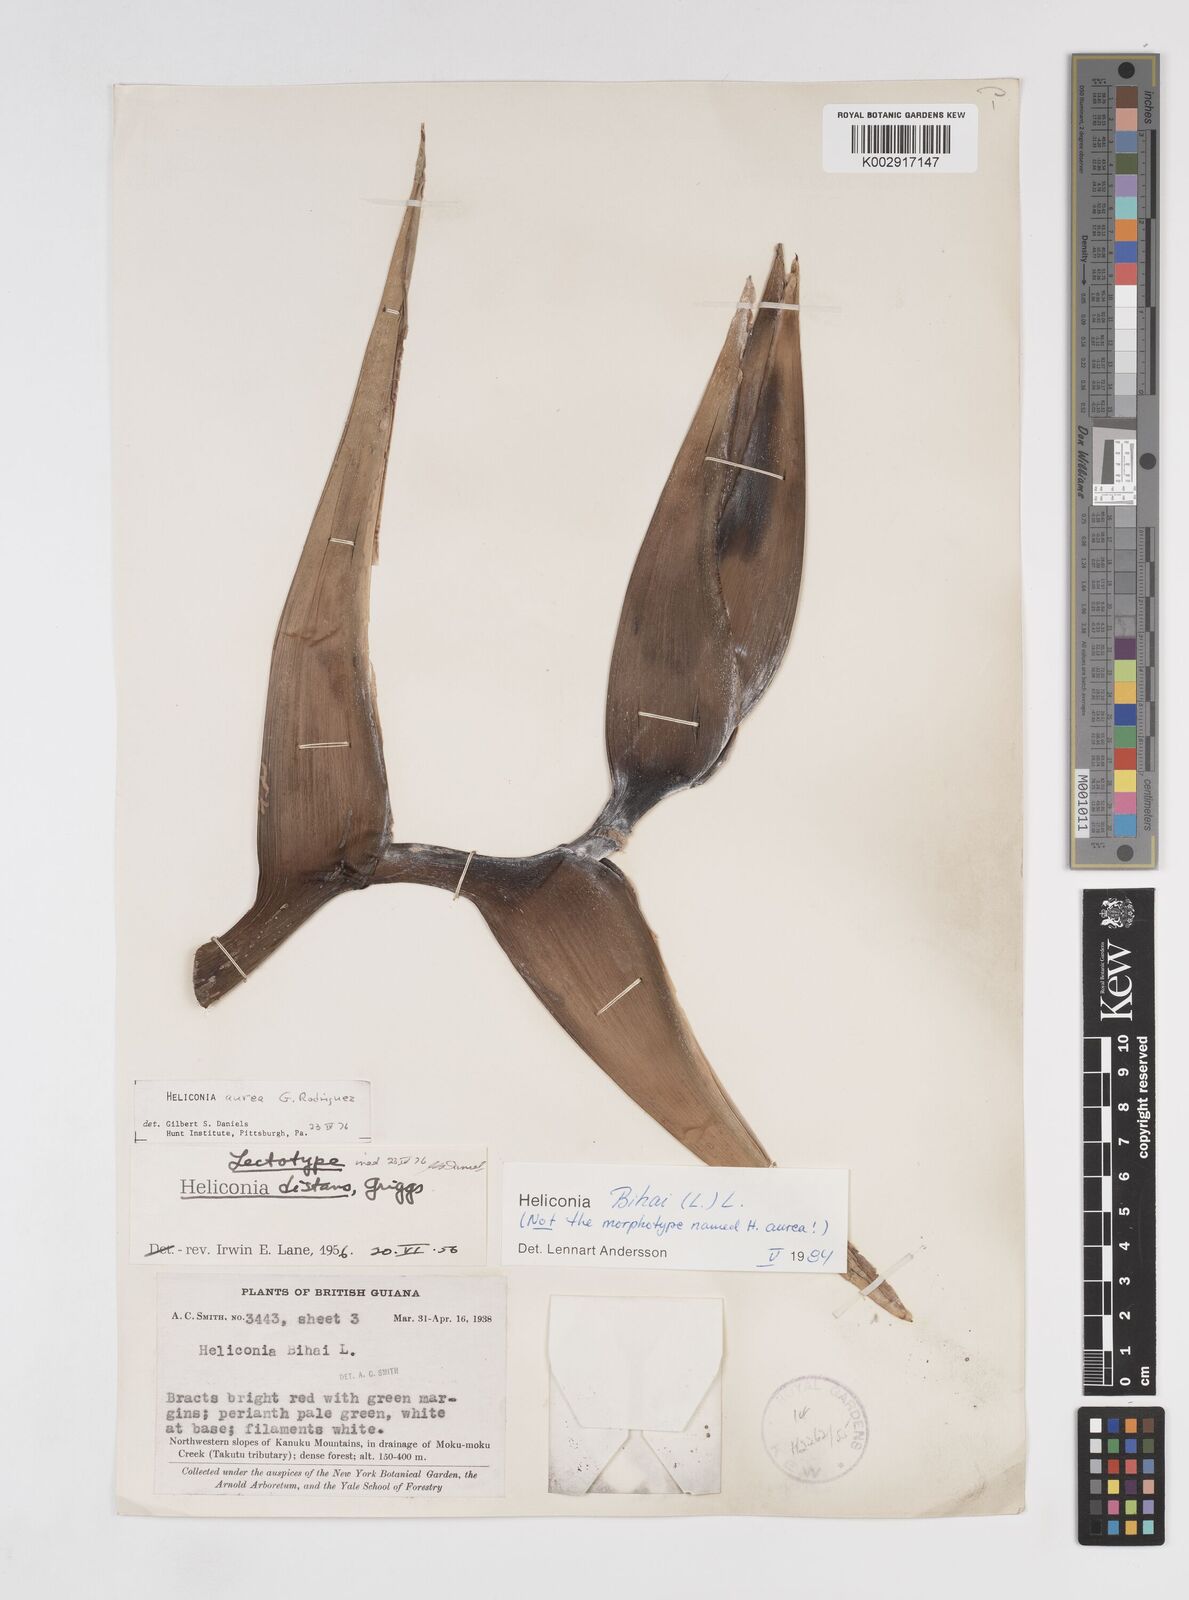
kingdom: Plantae
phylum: Tracheophyta
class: Liliopsida
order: Zingiberales
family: Heliconiaceae
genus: Heliconia
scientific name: Heliconia bihai
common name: Macaw flower
